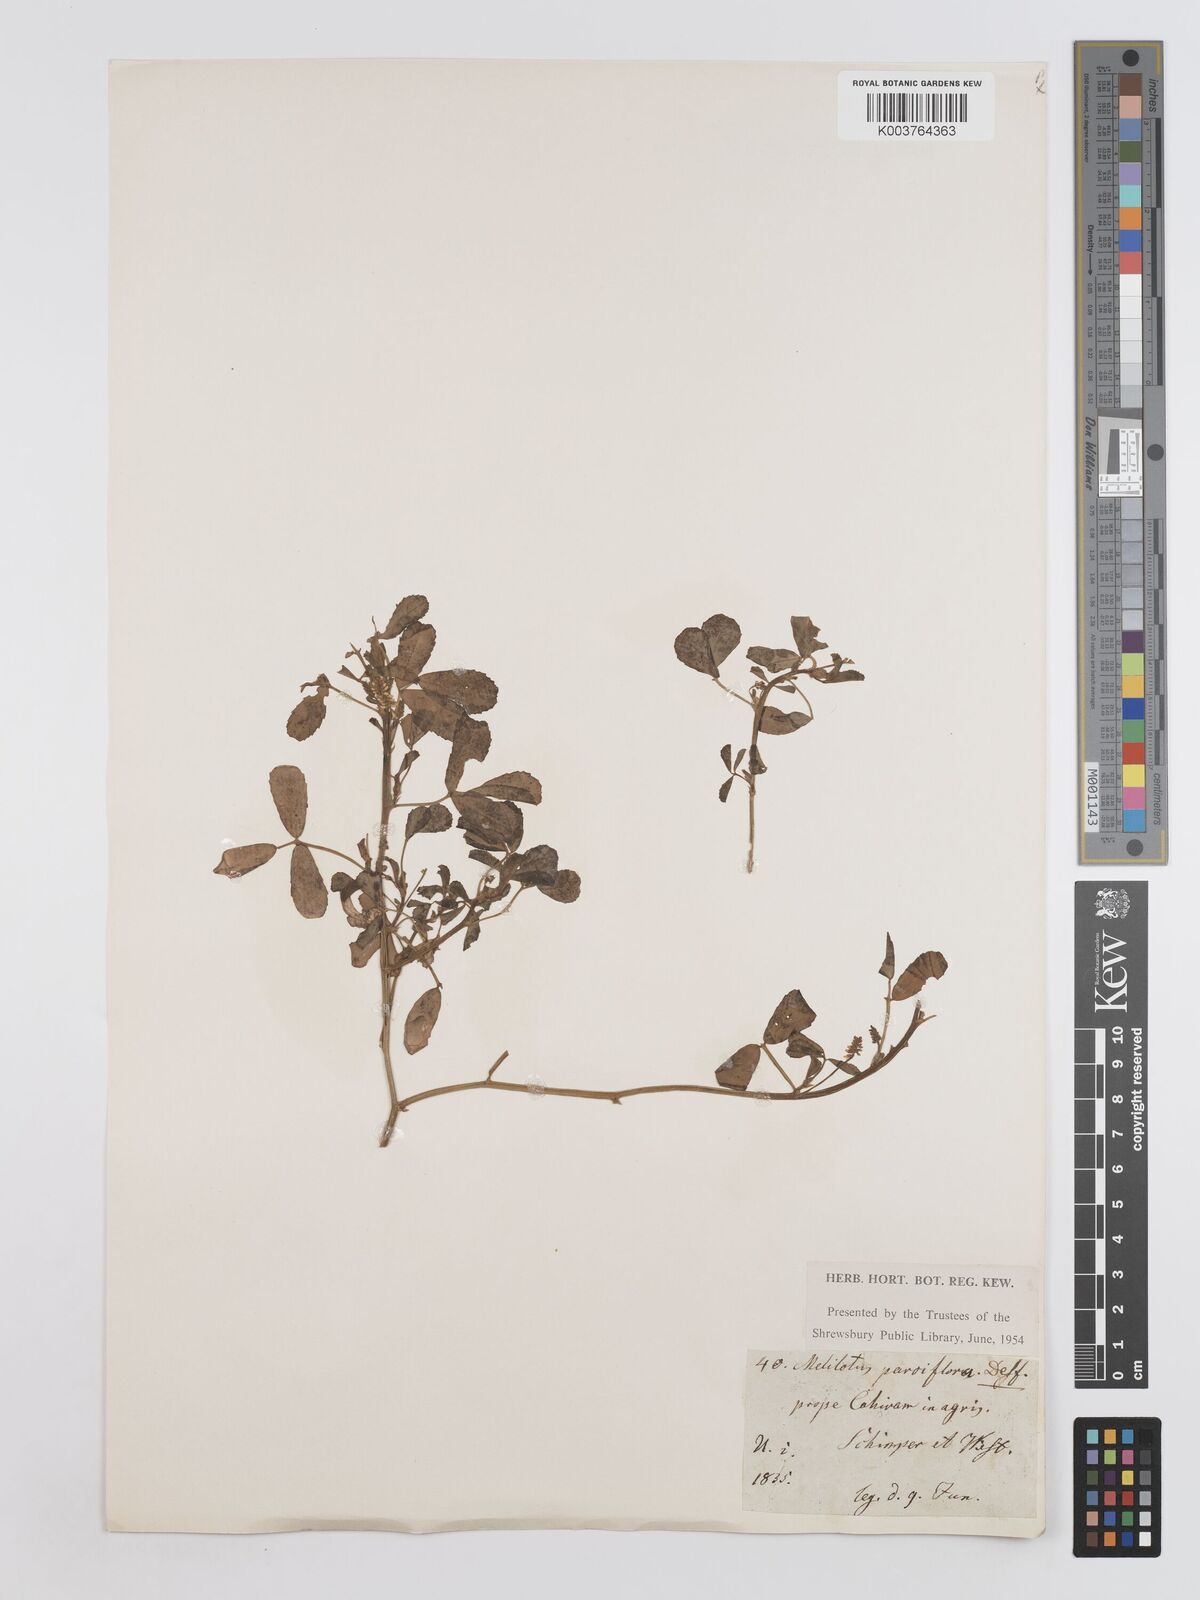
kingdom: Plantae
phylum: Tracheophyta
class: Magnoliopsida
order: Fabales
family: Fabaceae
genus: Melilotus
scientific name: Melilotus indicus
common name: Small melilot
